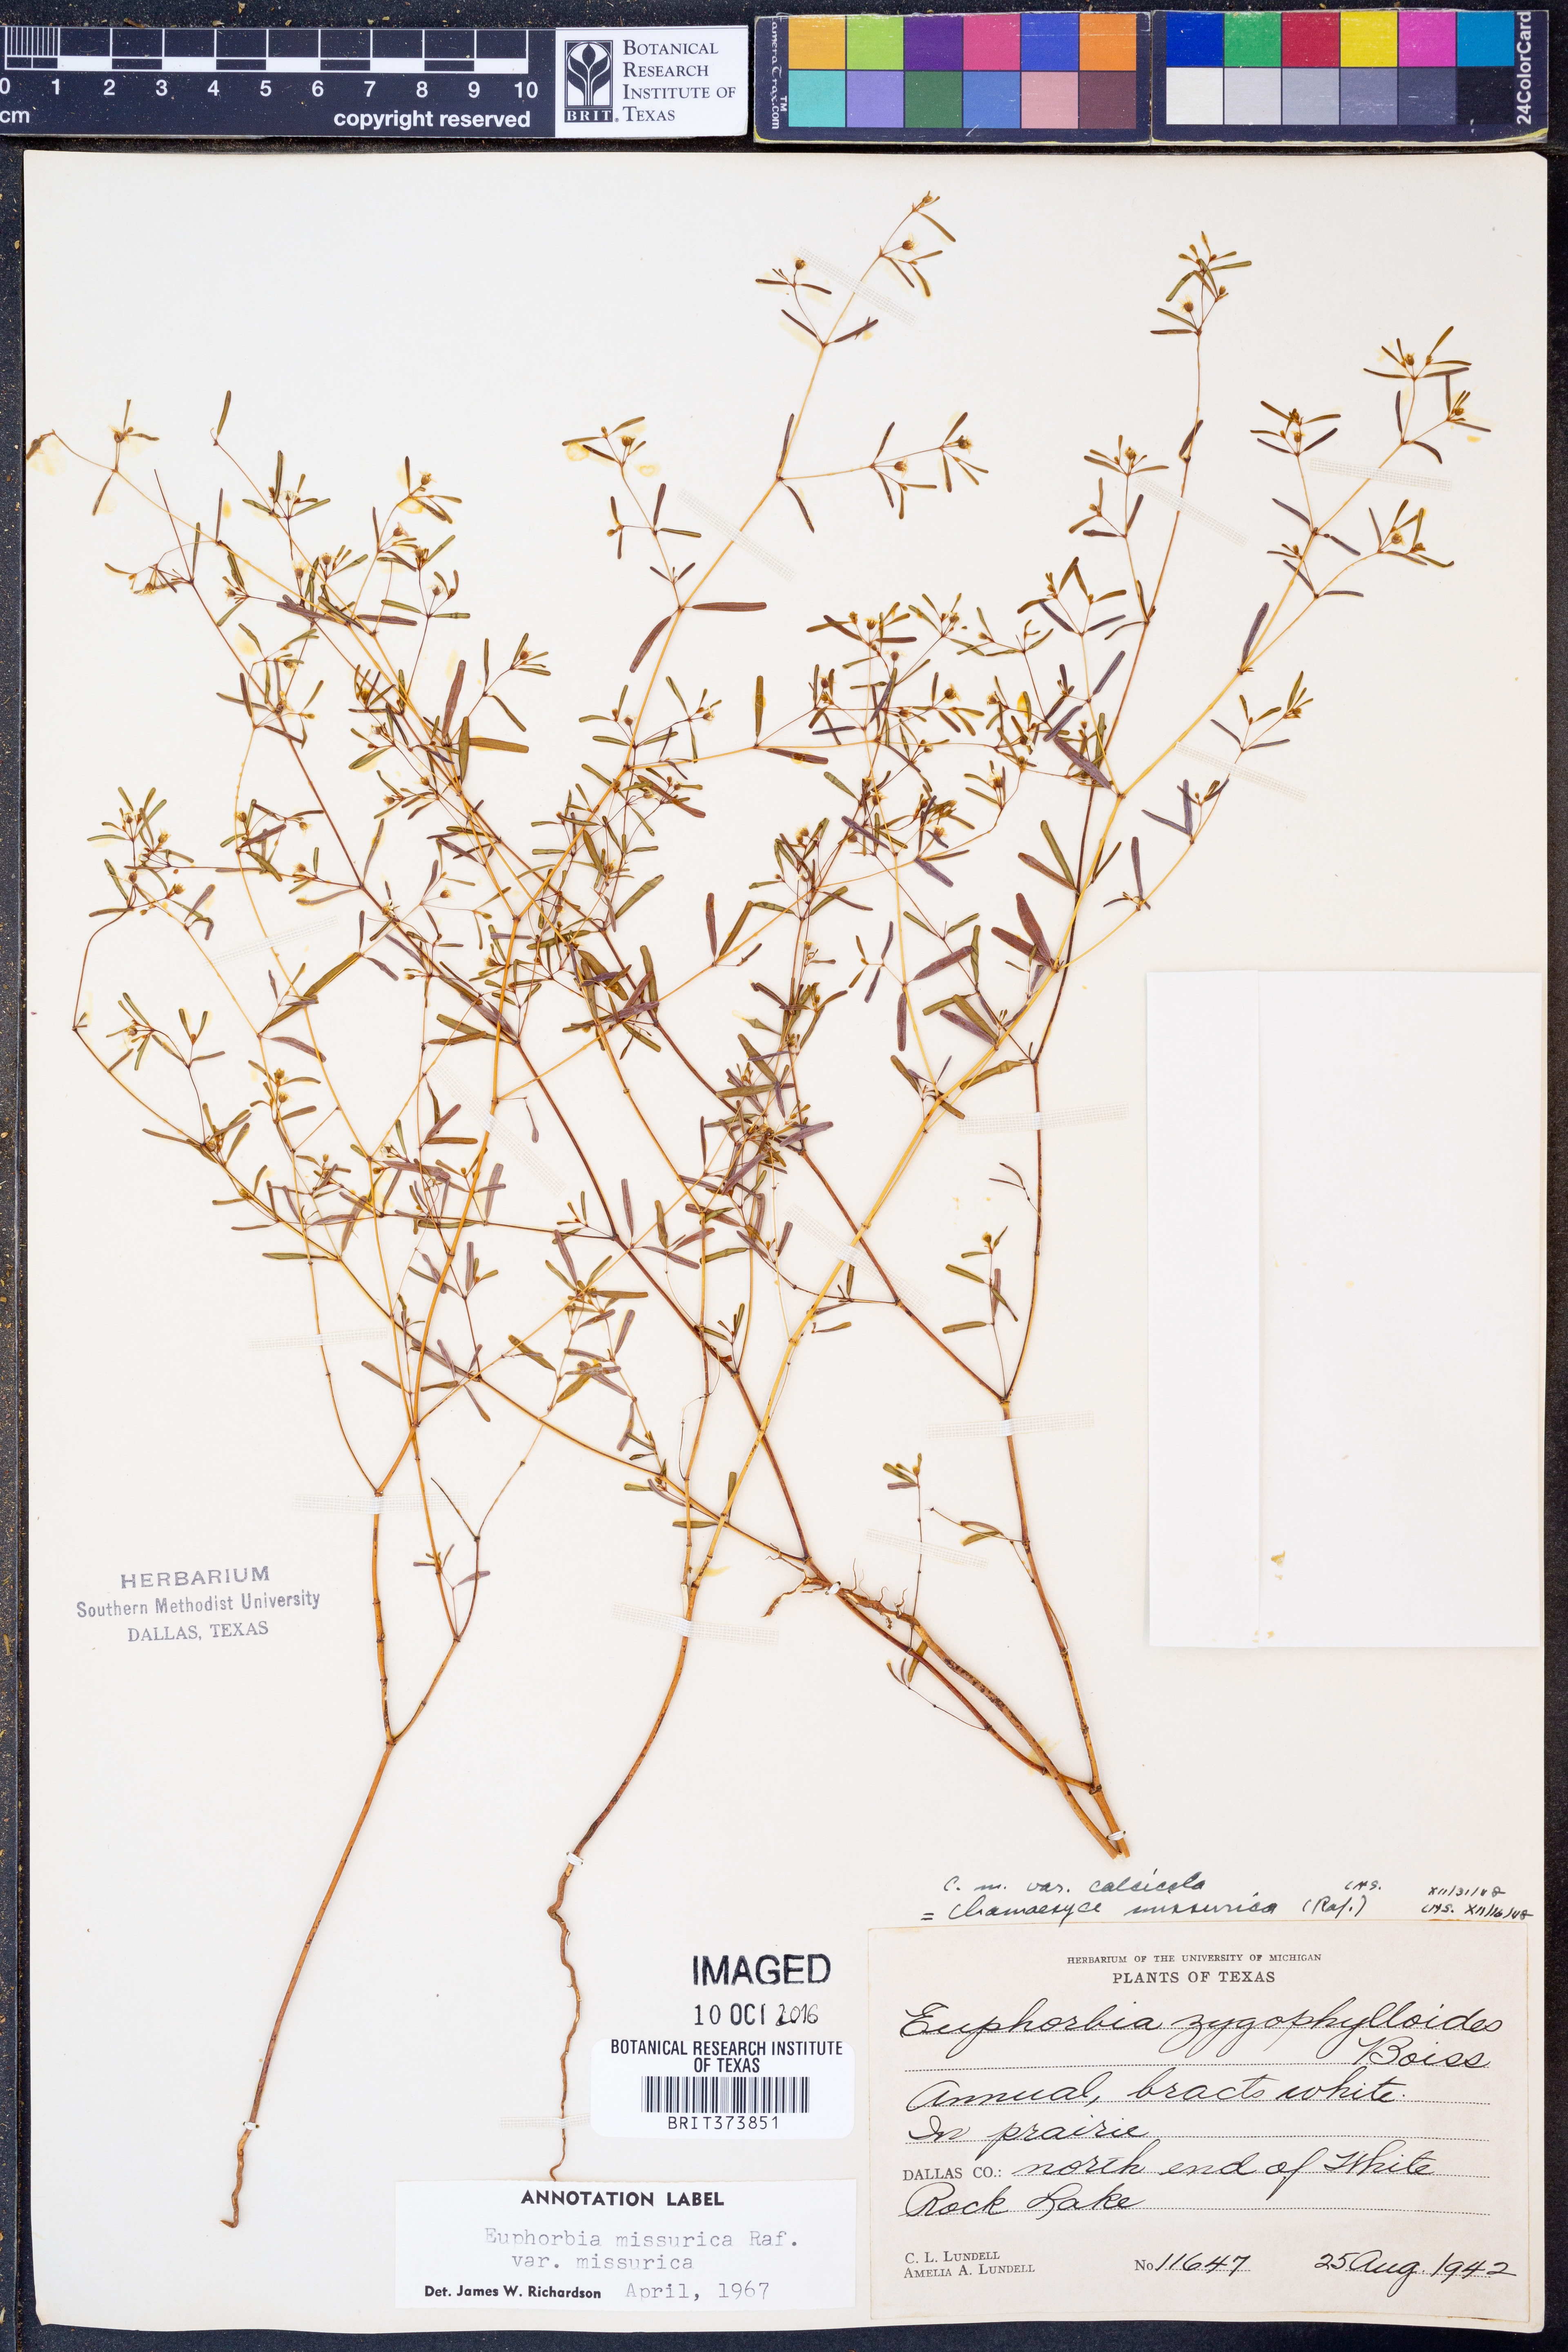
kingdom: Plantae
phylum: Tracheophyta
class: Magnoliopsida
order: Malpighiales
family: Euphorbiaceae
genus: Euphorbia
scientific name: Euphorbia missurica
